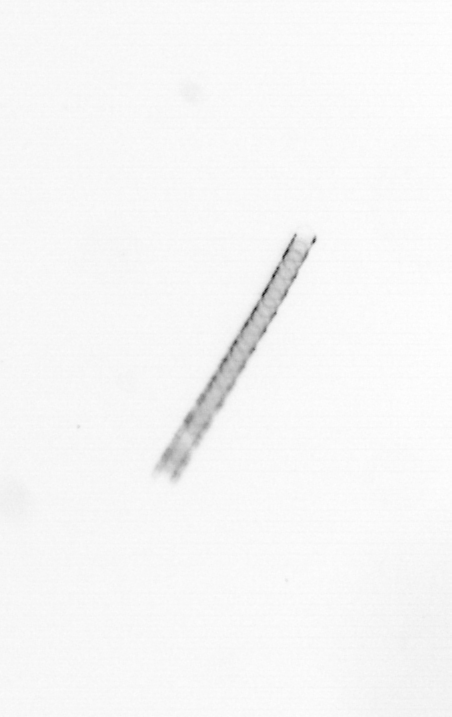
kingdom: Chromista
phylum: Ochrophyta
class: Bacillariophyceae
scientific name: Bacillariophyceae
